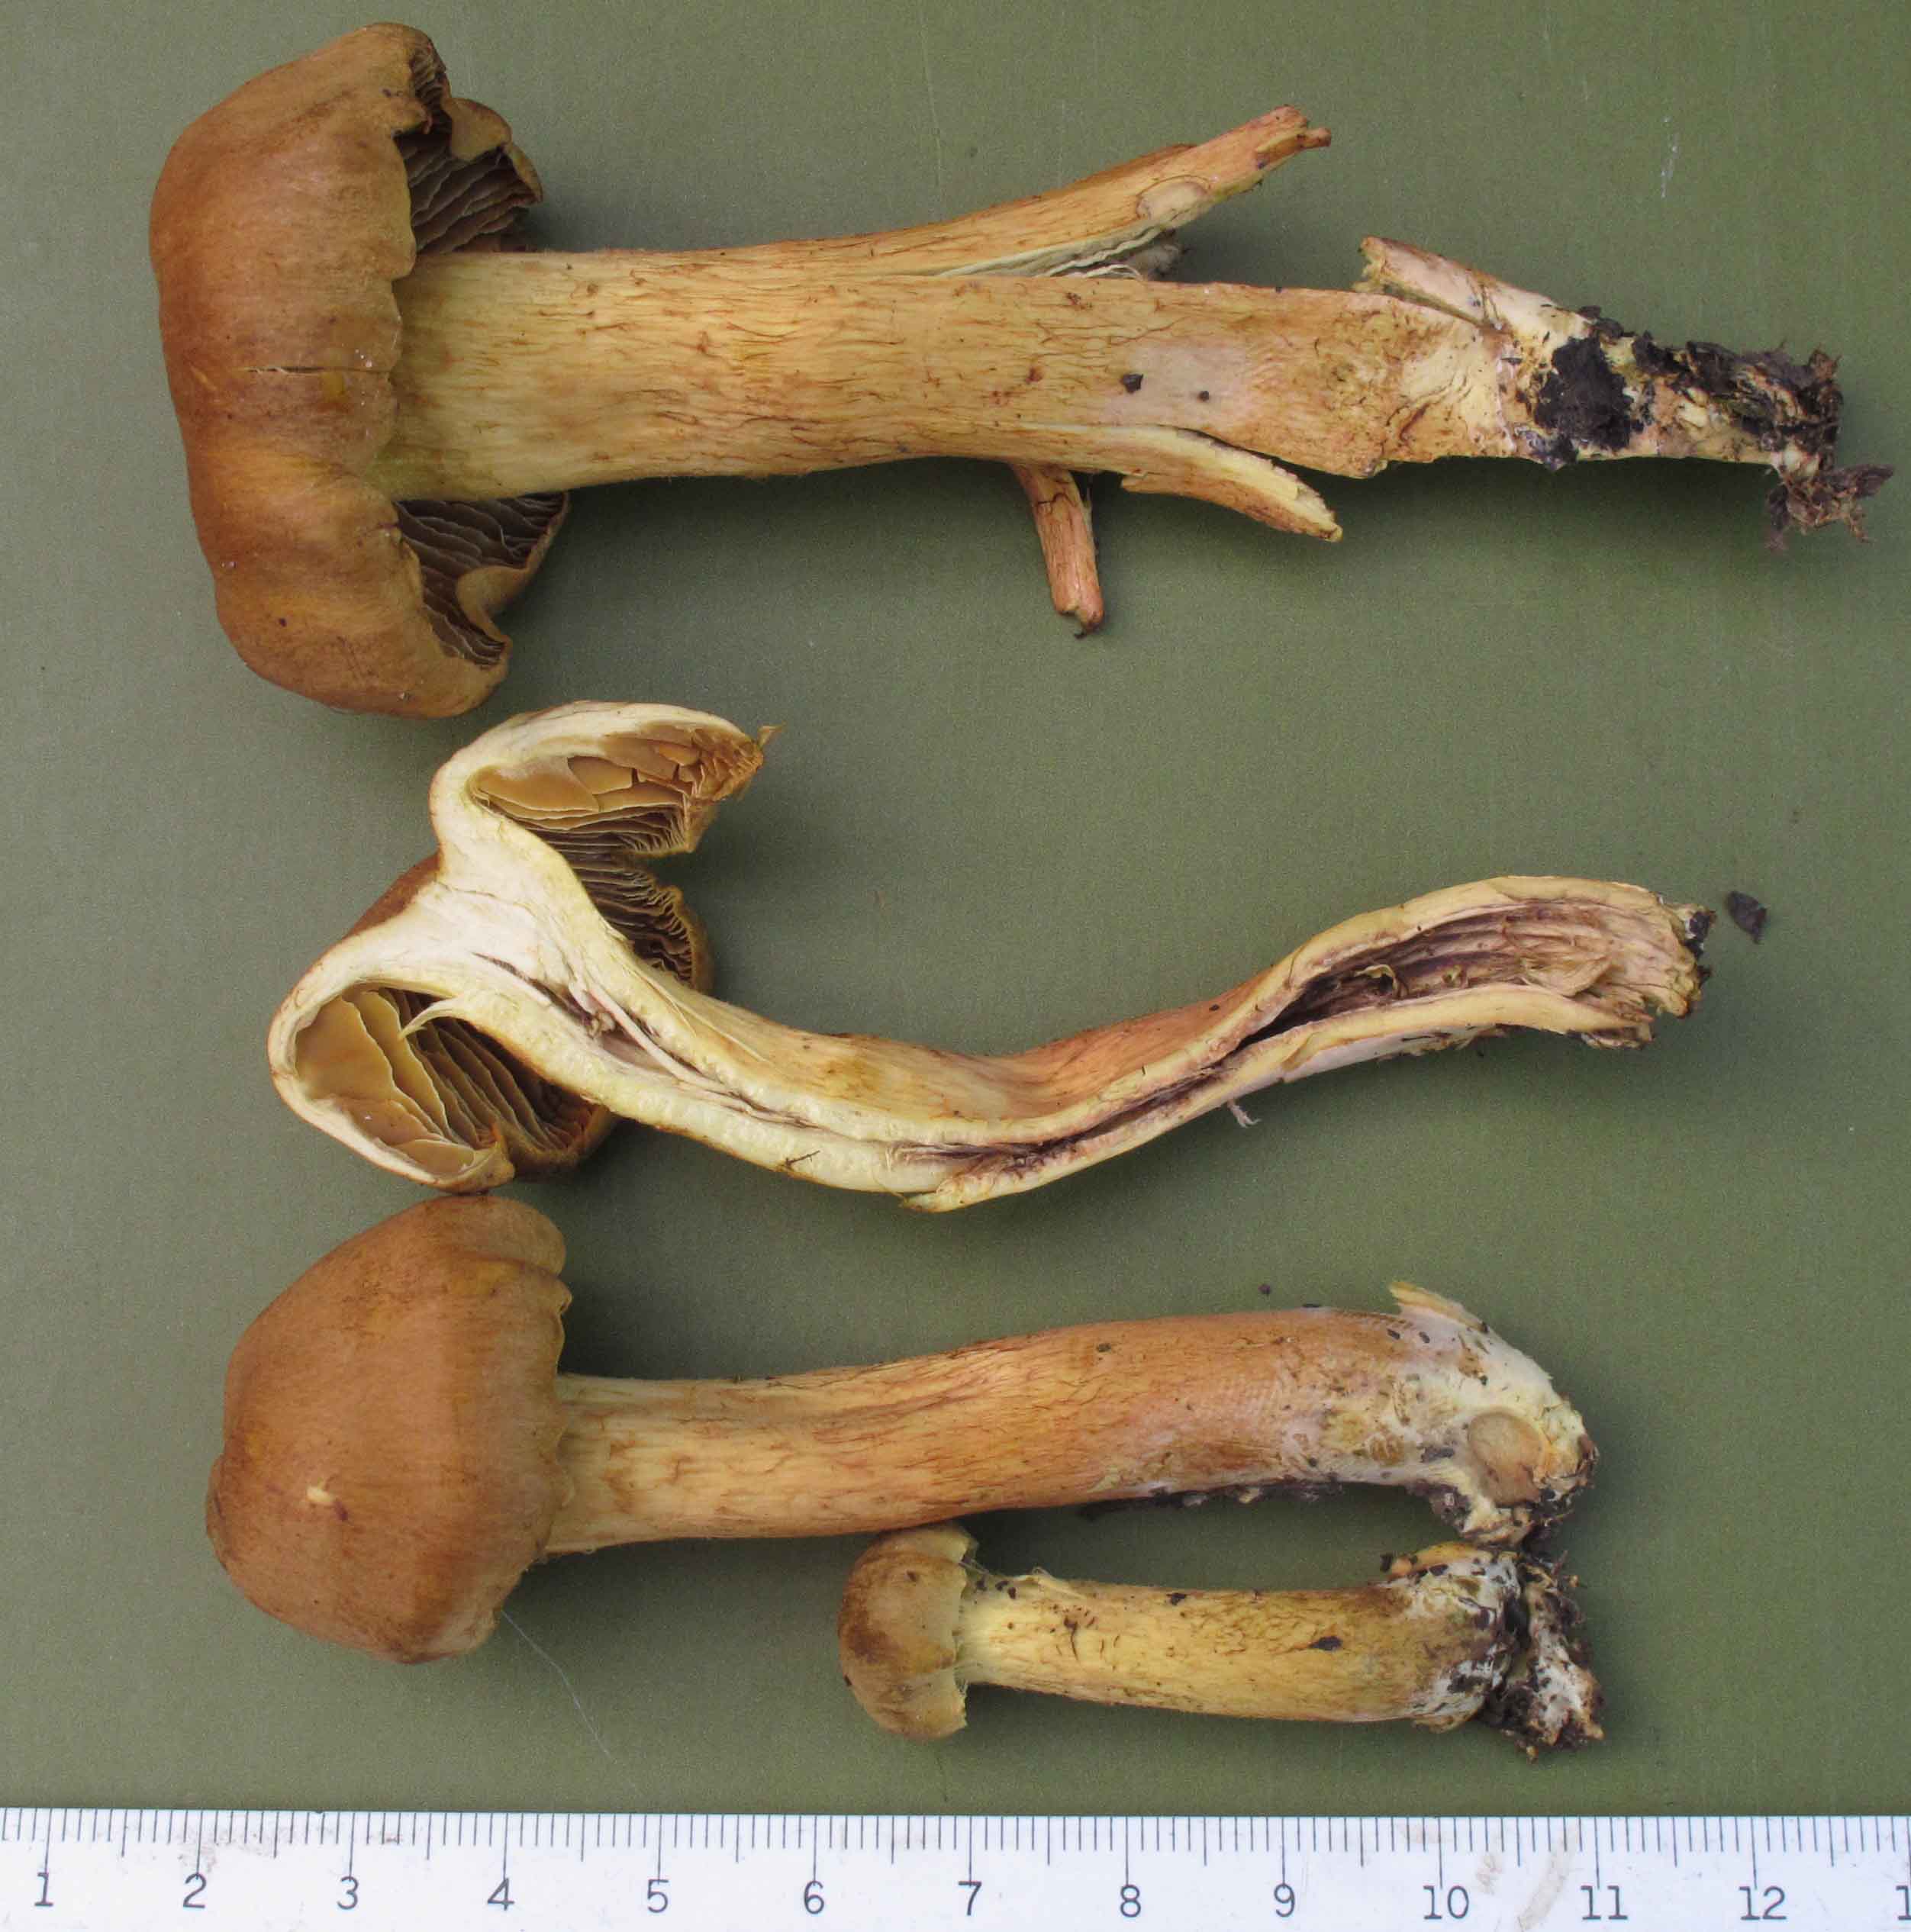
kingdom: Fungi
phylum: Basidiomycota
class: Agaricomycetes
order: Agaricales
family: Cortinariaceae
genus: Cortinarius
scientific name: Cortinarius uliginosus
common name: mose-slørhat
